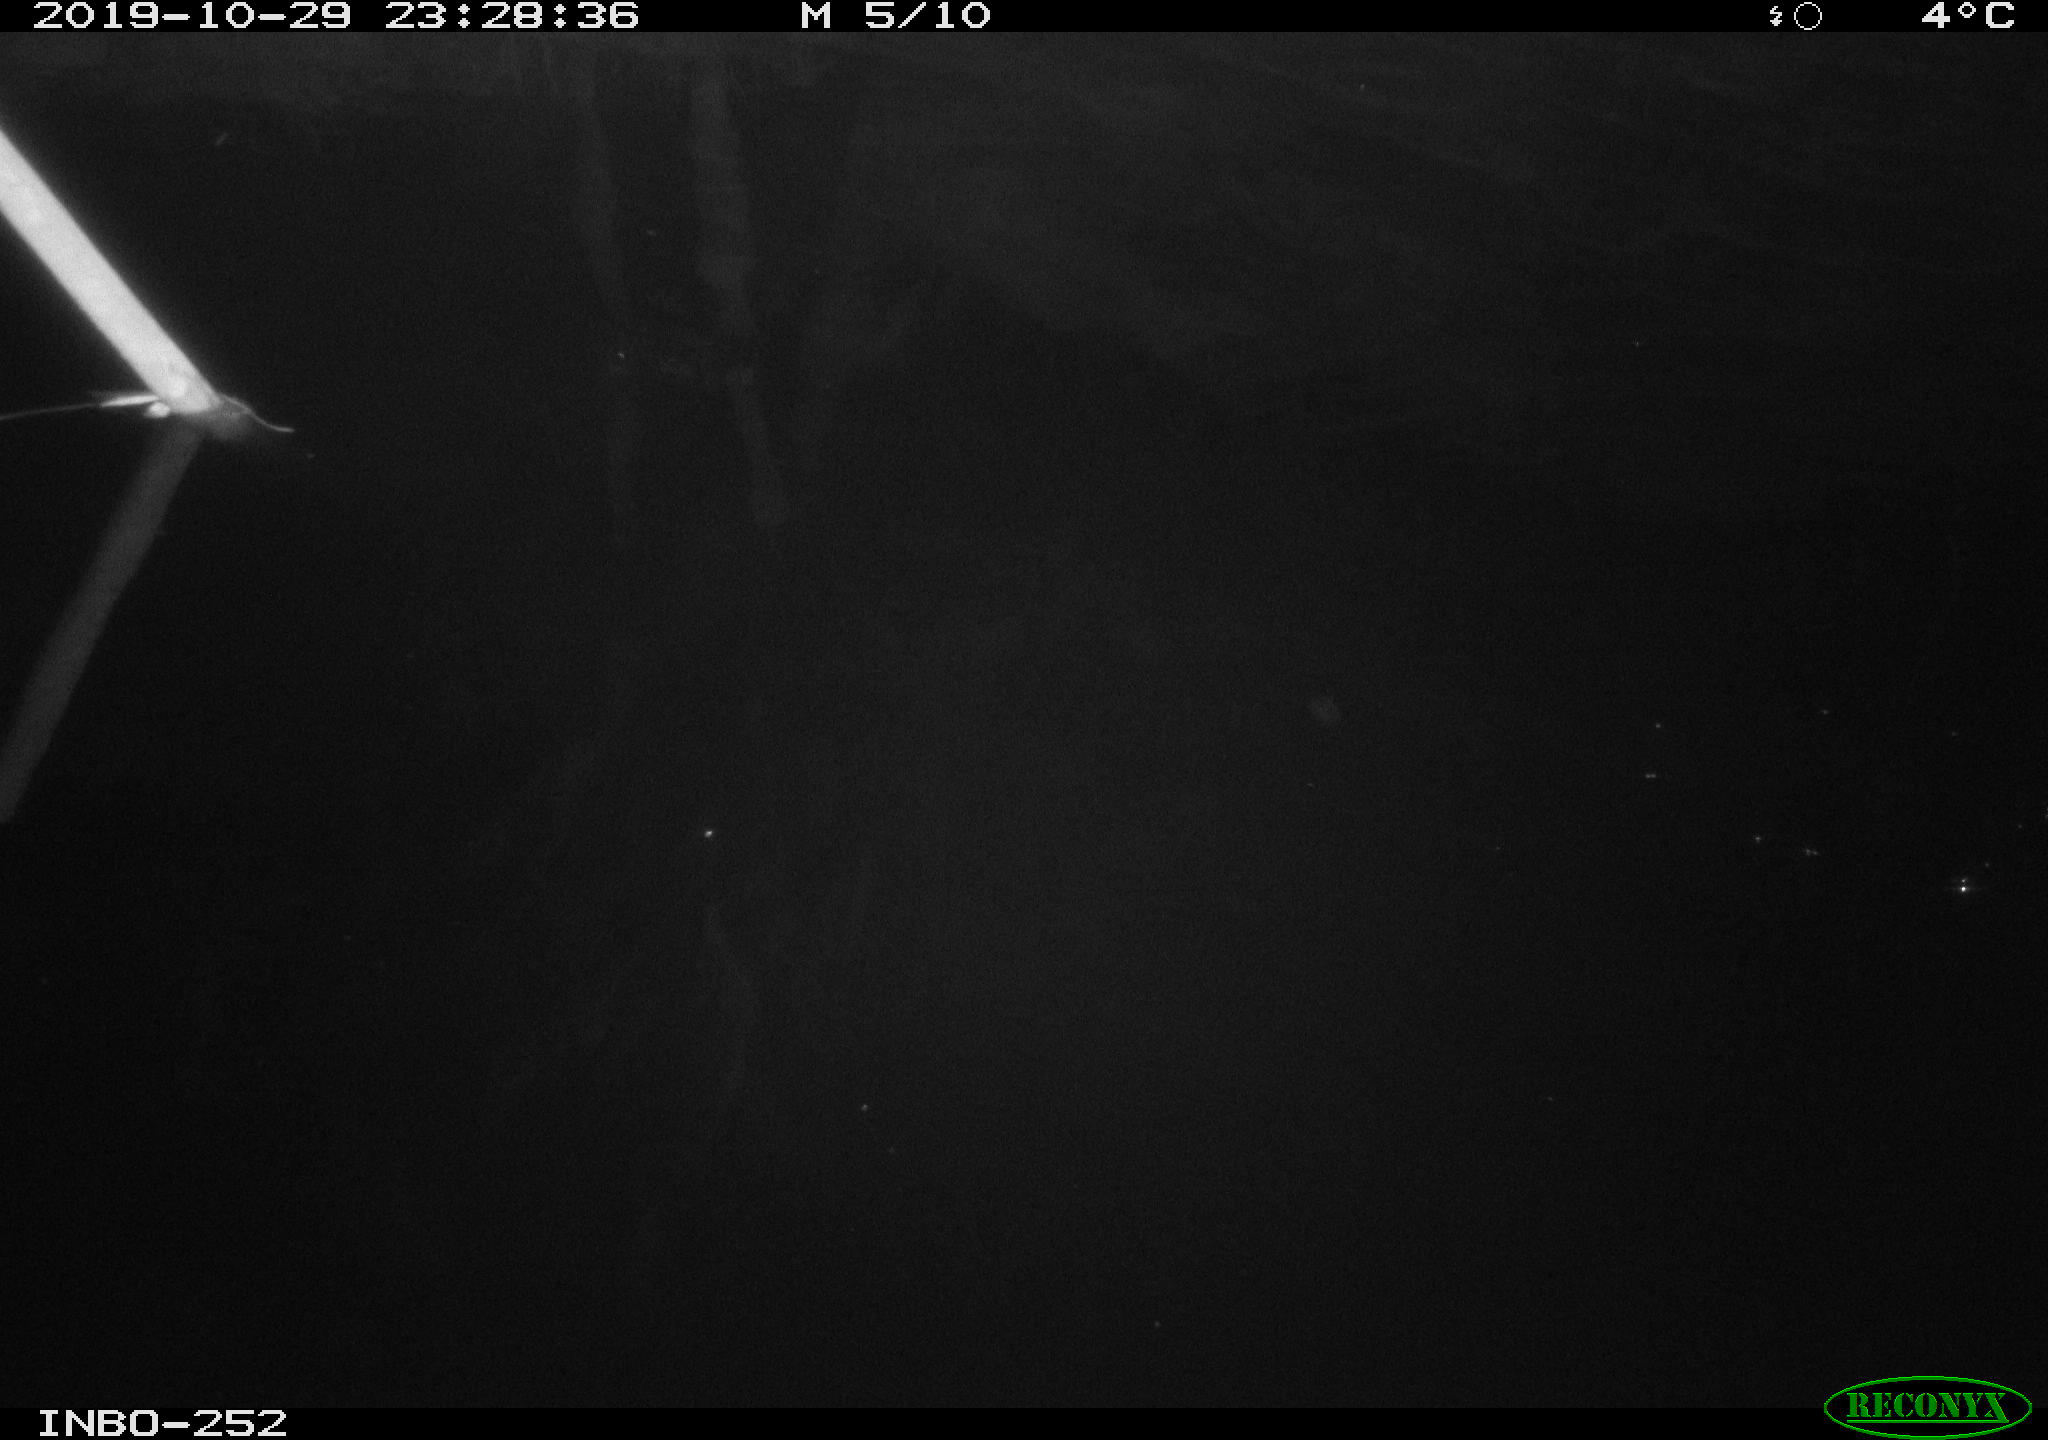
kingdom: Animalia
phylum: Chordata
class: Aves
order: Anseriformes
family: Anatidae
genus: Anas
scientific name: Anas platyrhynchos
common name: Mallard
